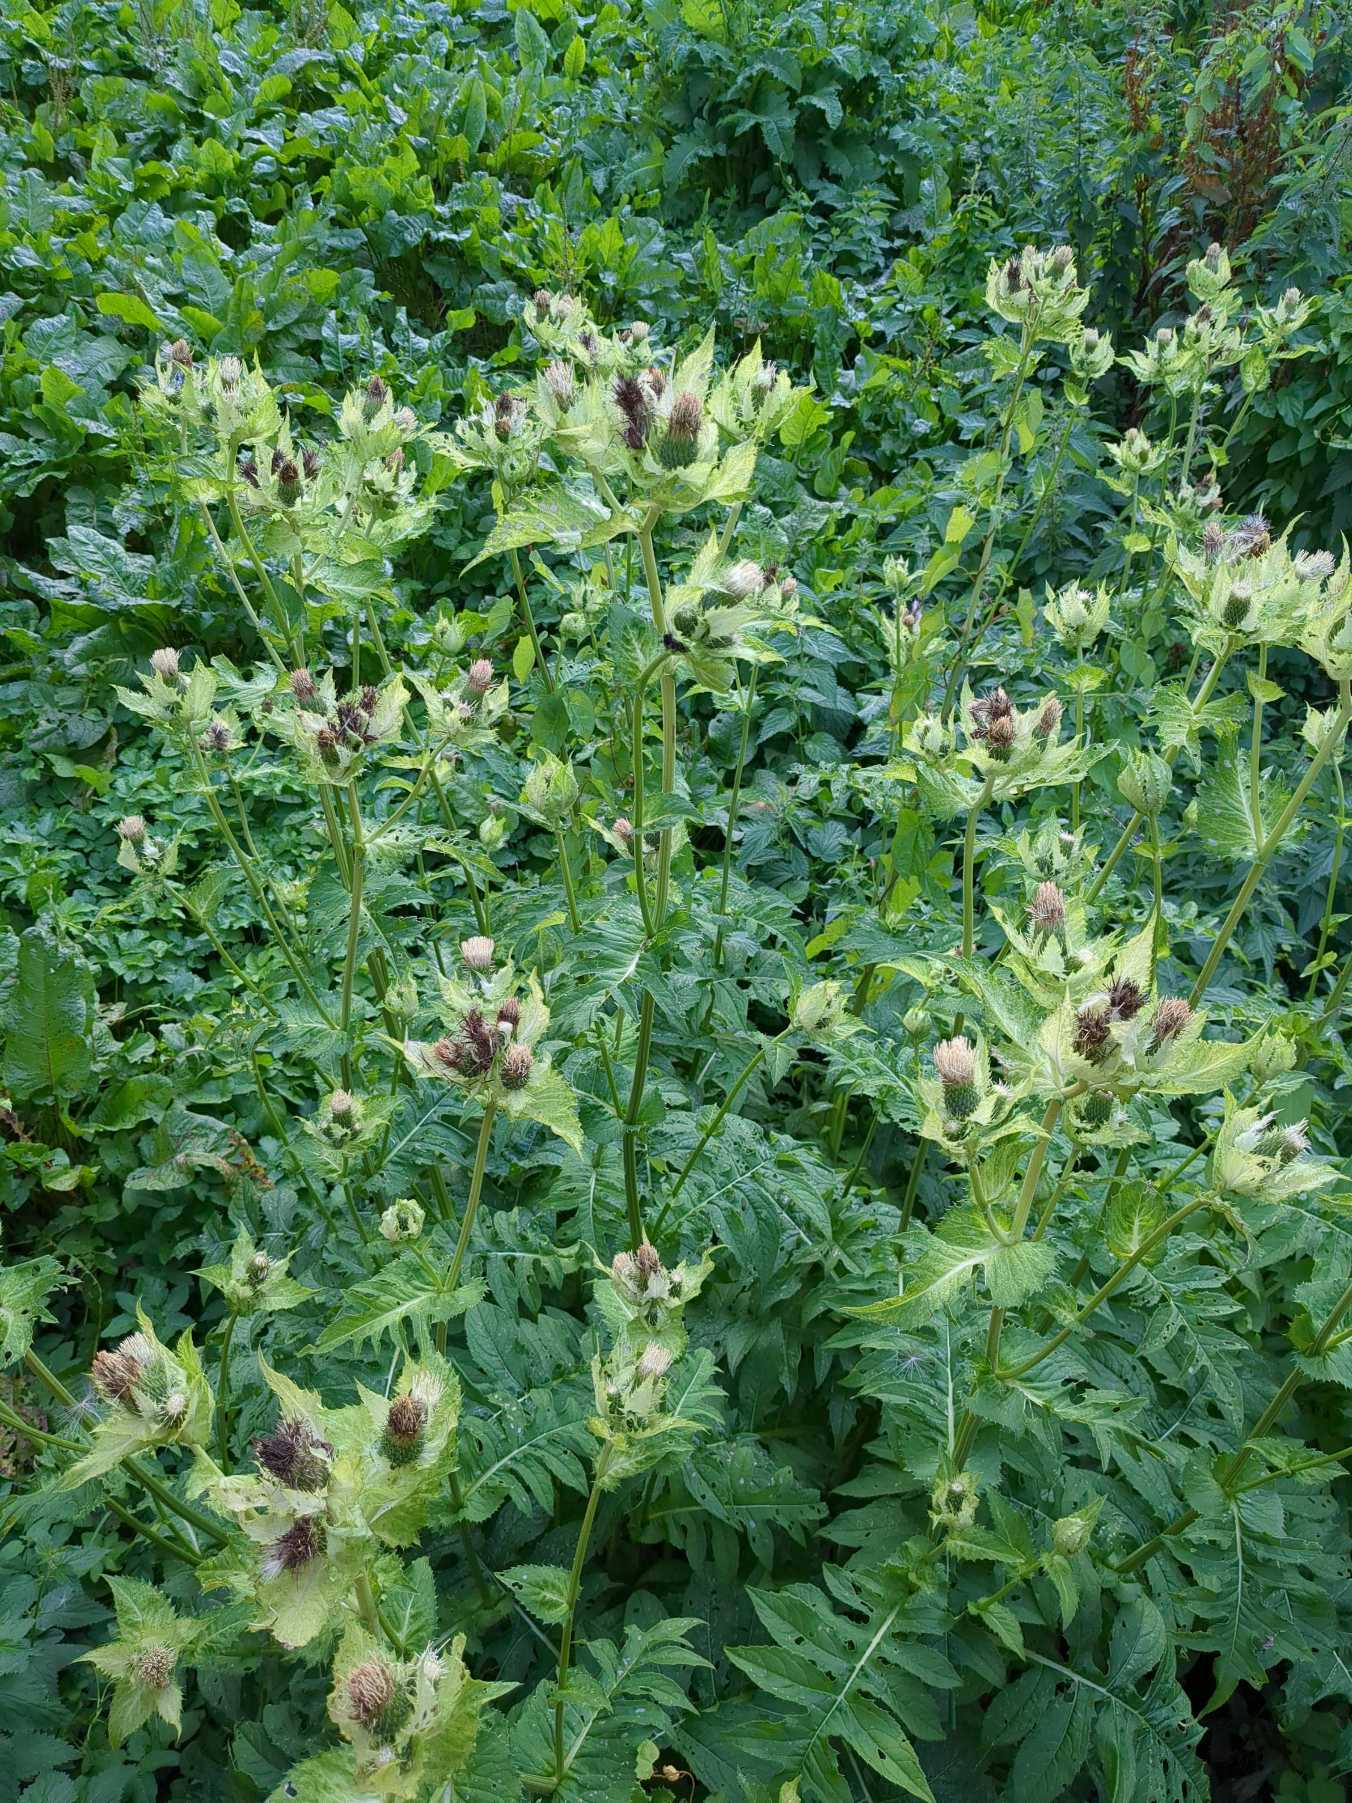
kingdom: Plantae
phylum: Tracheophyta
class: Magnoliopsida
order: Asterales
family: Asteraceae
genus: Cirsium
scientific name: Cirsium oleraceum
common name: Kål-tidsel
